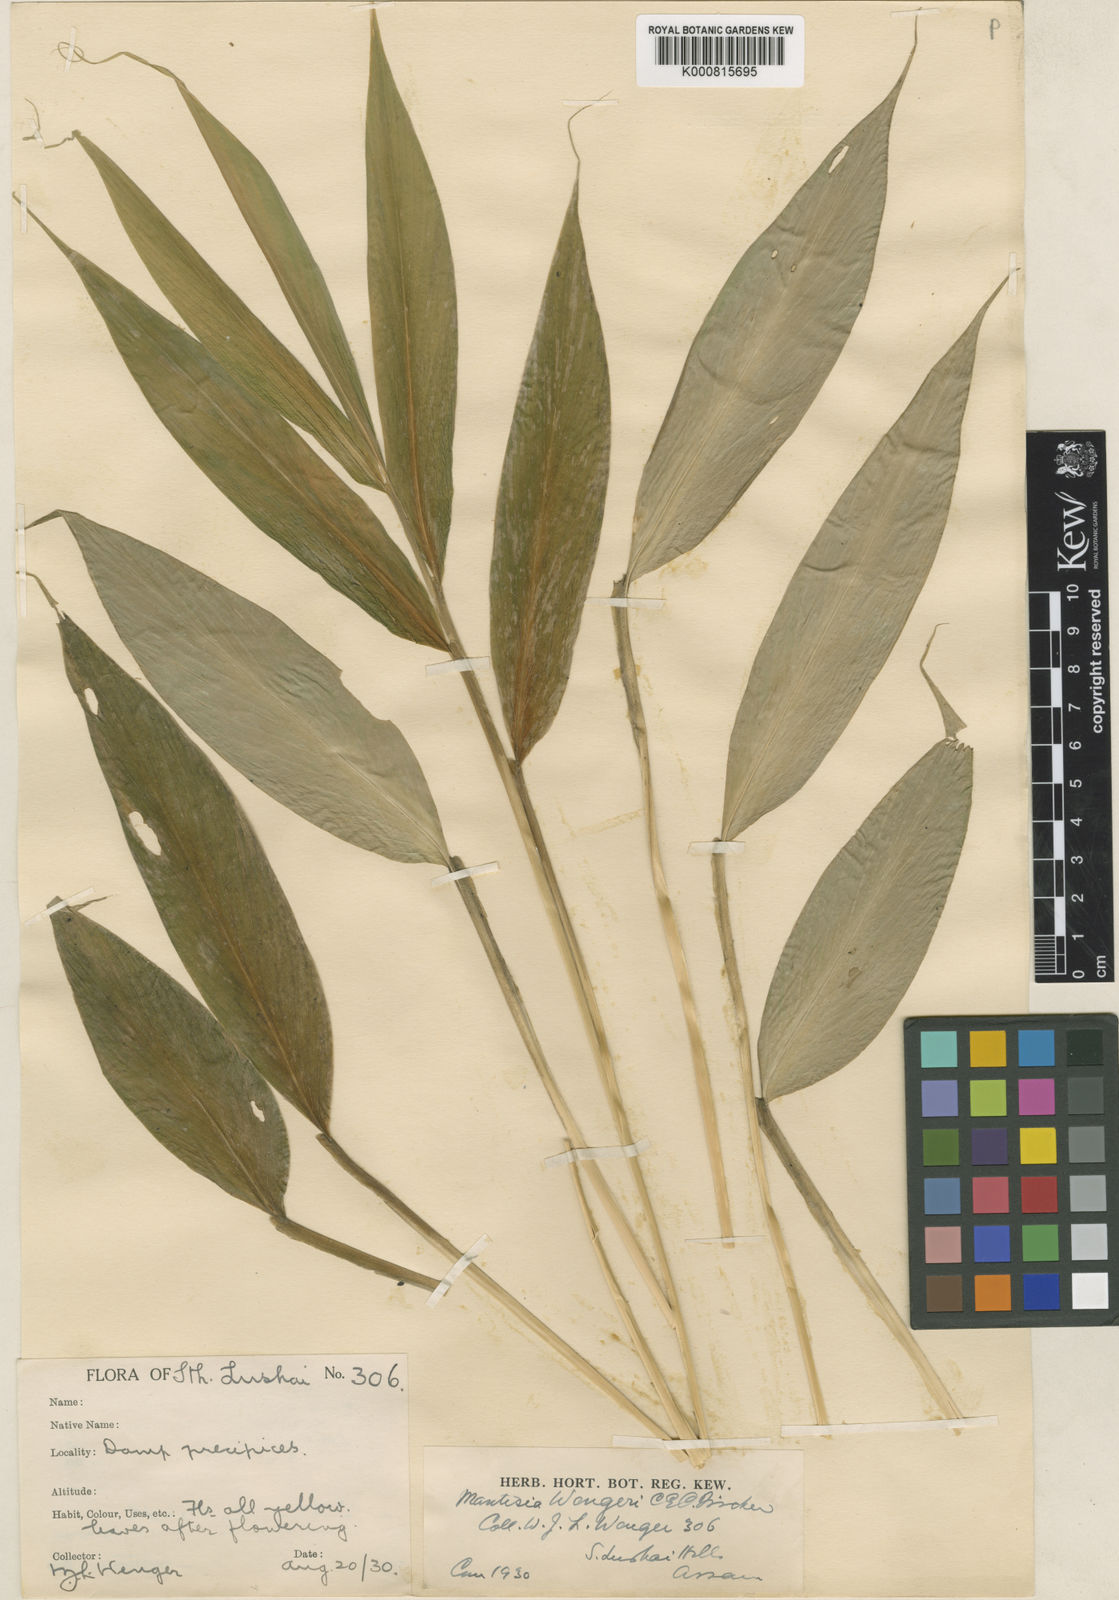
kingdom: Plantae
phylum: Tracheophyta
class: Liliopsida
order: Zingiberales
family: Zingiberaceae
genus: Globba
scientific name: Globba wengeri
